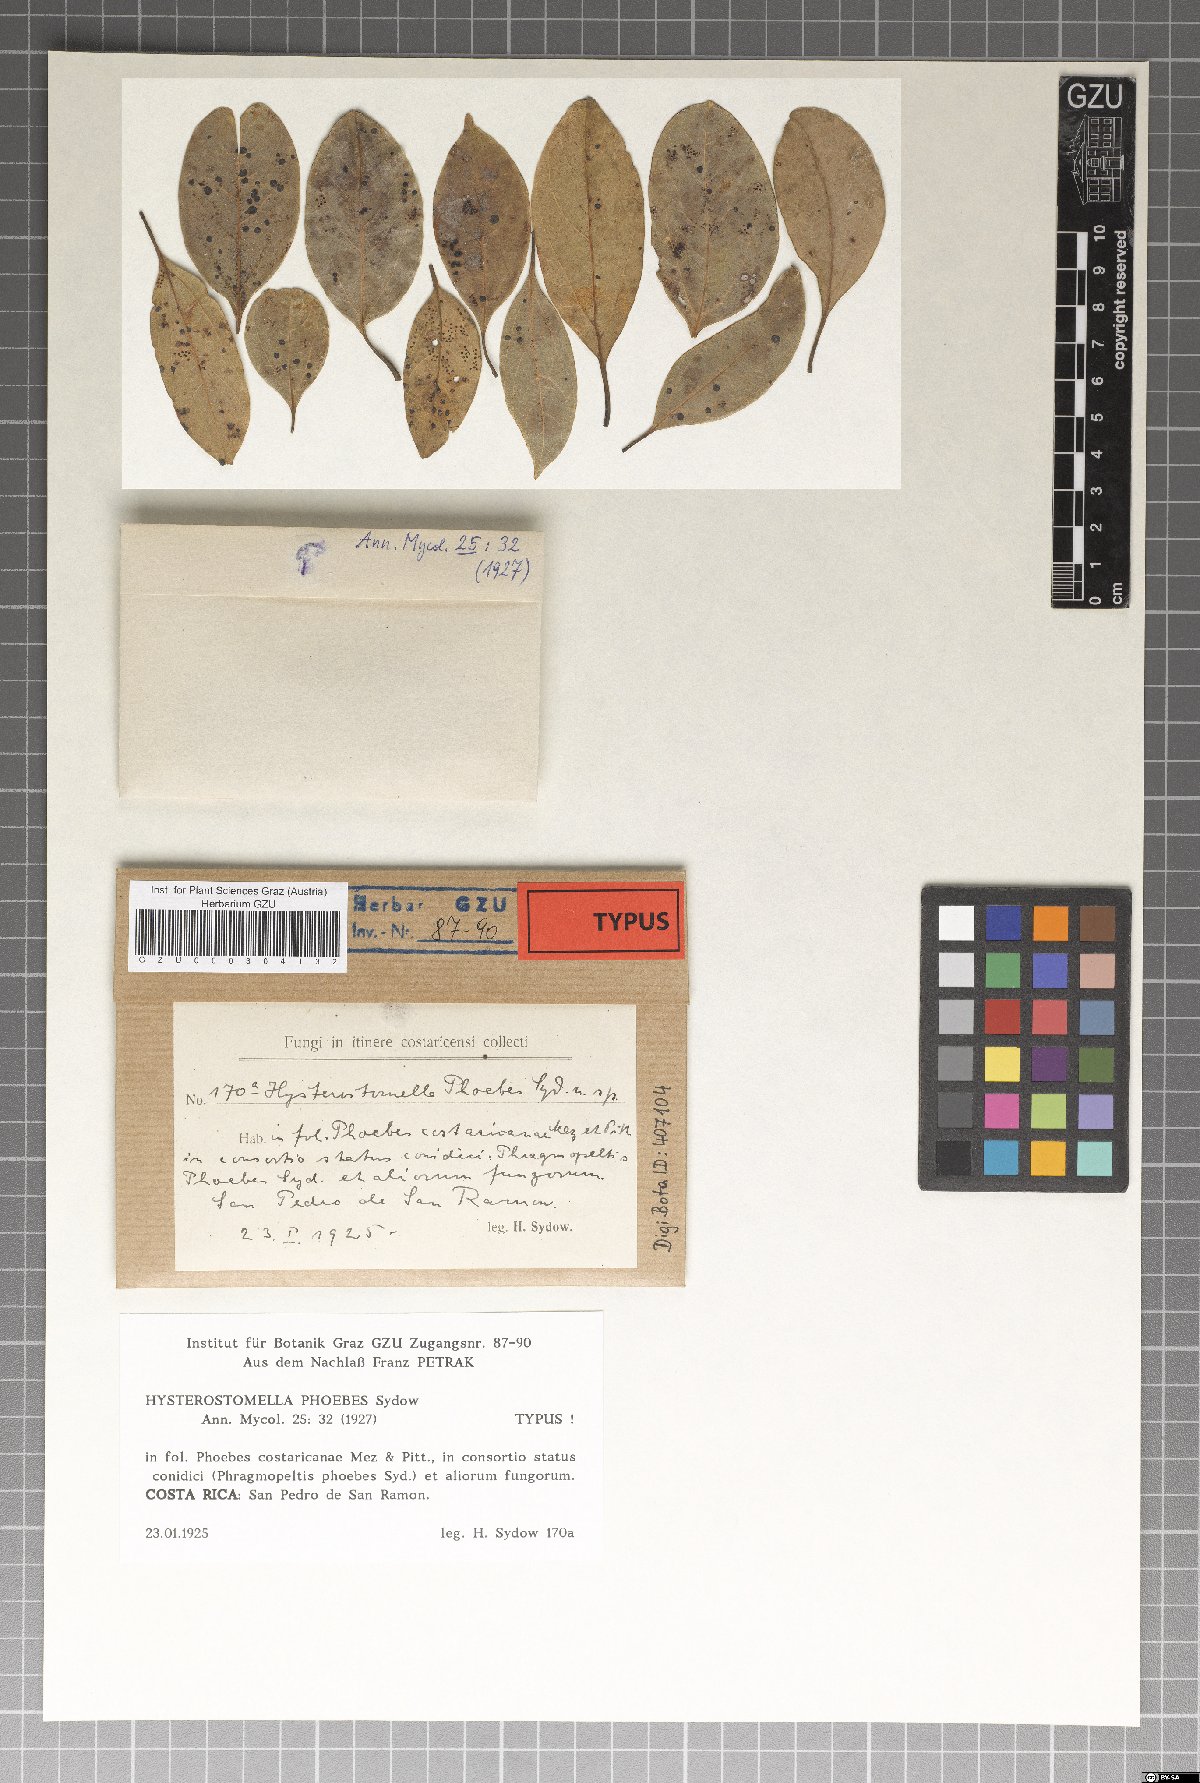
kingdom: Fungi
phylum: Ascomycota
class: Dothideomycetes
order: Asterinales
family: Parmulariaceae
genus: Hysterostomella
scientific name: Hysterostomella phoebes
